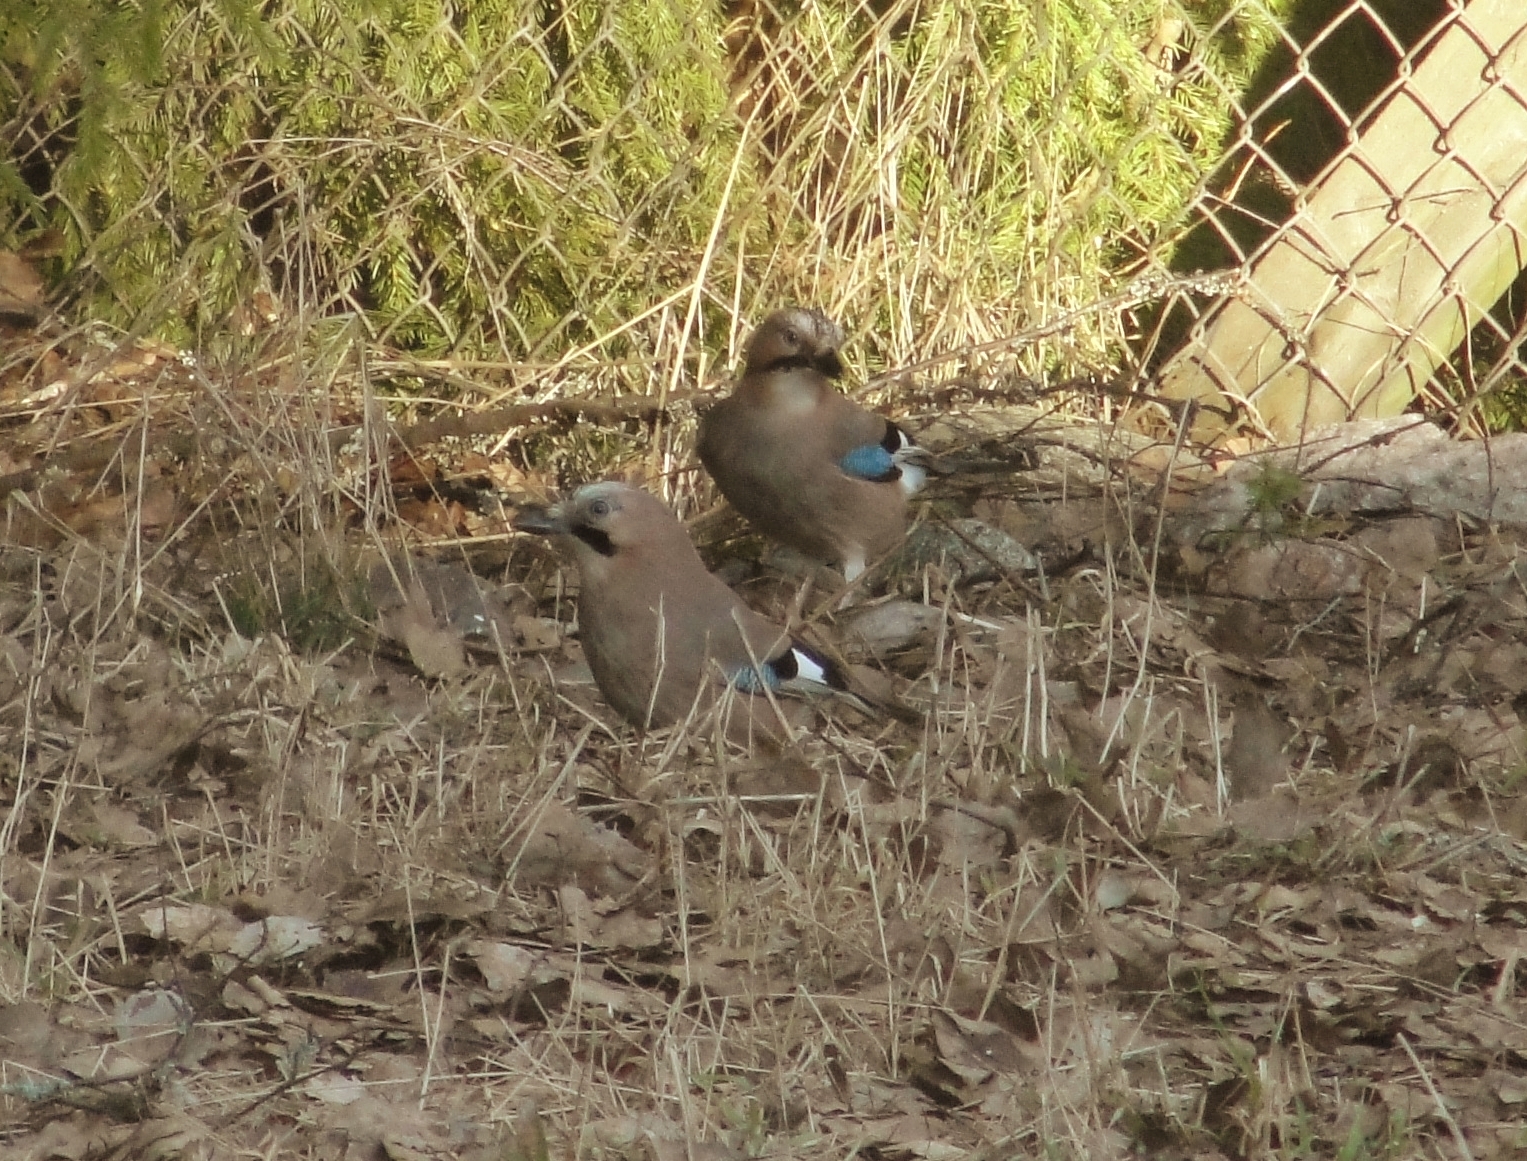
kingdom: Animalia
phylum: Chordata
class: Aves
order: Passeriformes
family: Corvidae
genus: Garrulus
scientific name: Garrulus glandarius
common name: Eurasian jay
